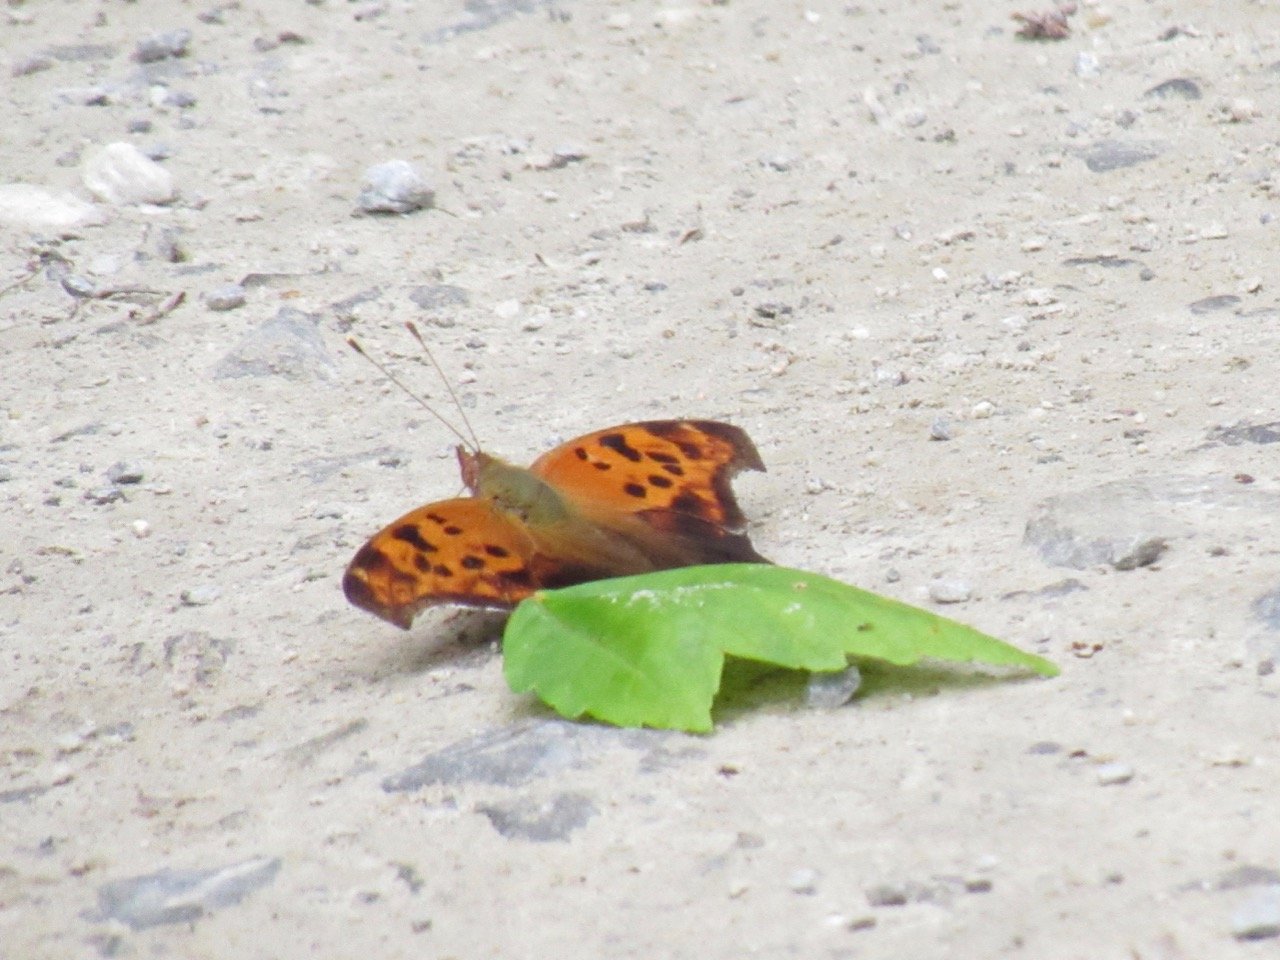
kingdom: Animalia
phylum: Arthropoda
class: Insecta
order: Lepidoptera
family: Nymphalidae
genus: Polygonia
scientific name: Polygonia interrogationis
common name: Question Mark
